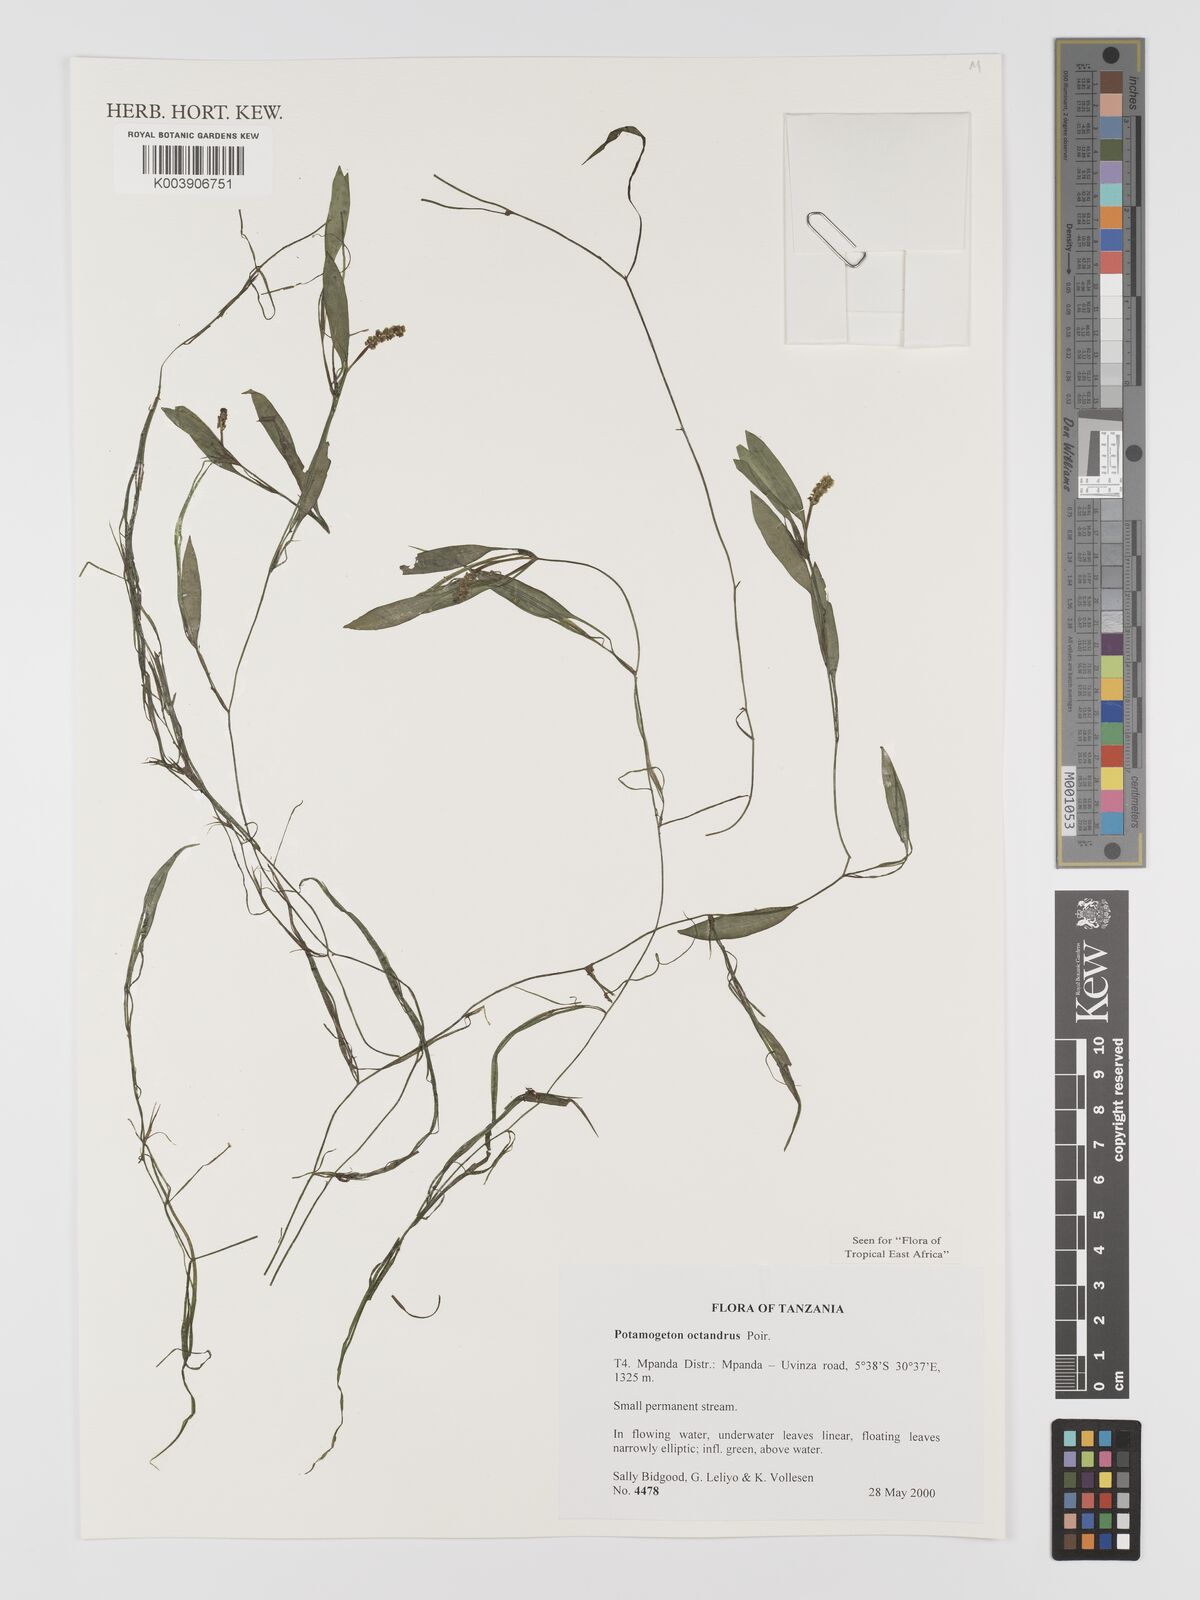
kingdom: Plantae
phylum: Tracheophyta
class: Liliopsida
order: Alismatales
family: Potamogetonaceae
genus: Potamogeton
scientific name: Potamogeton octandrus
